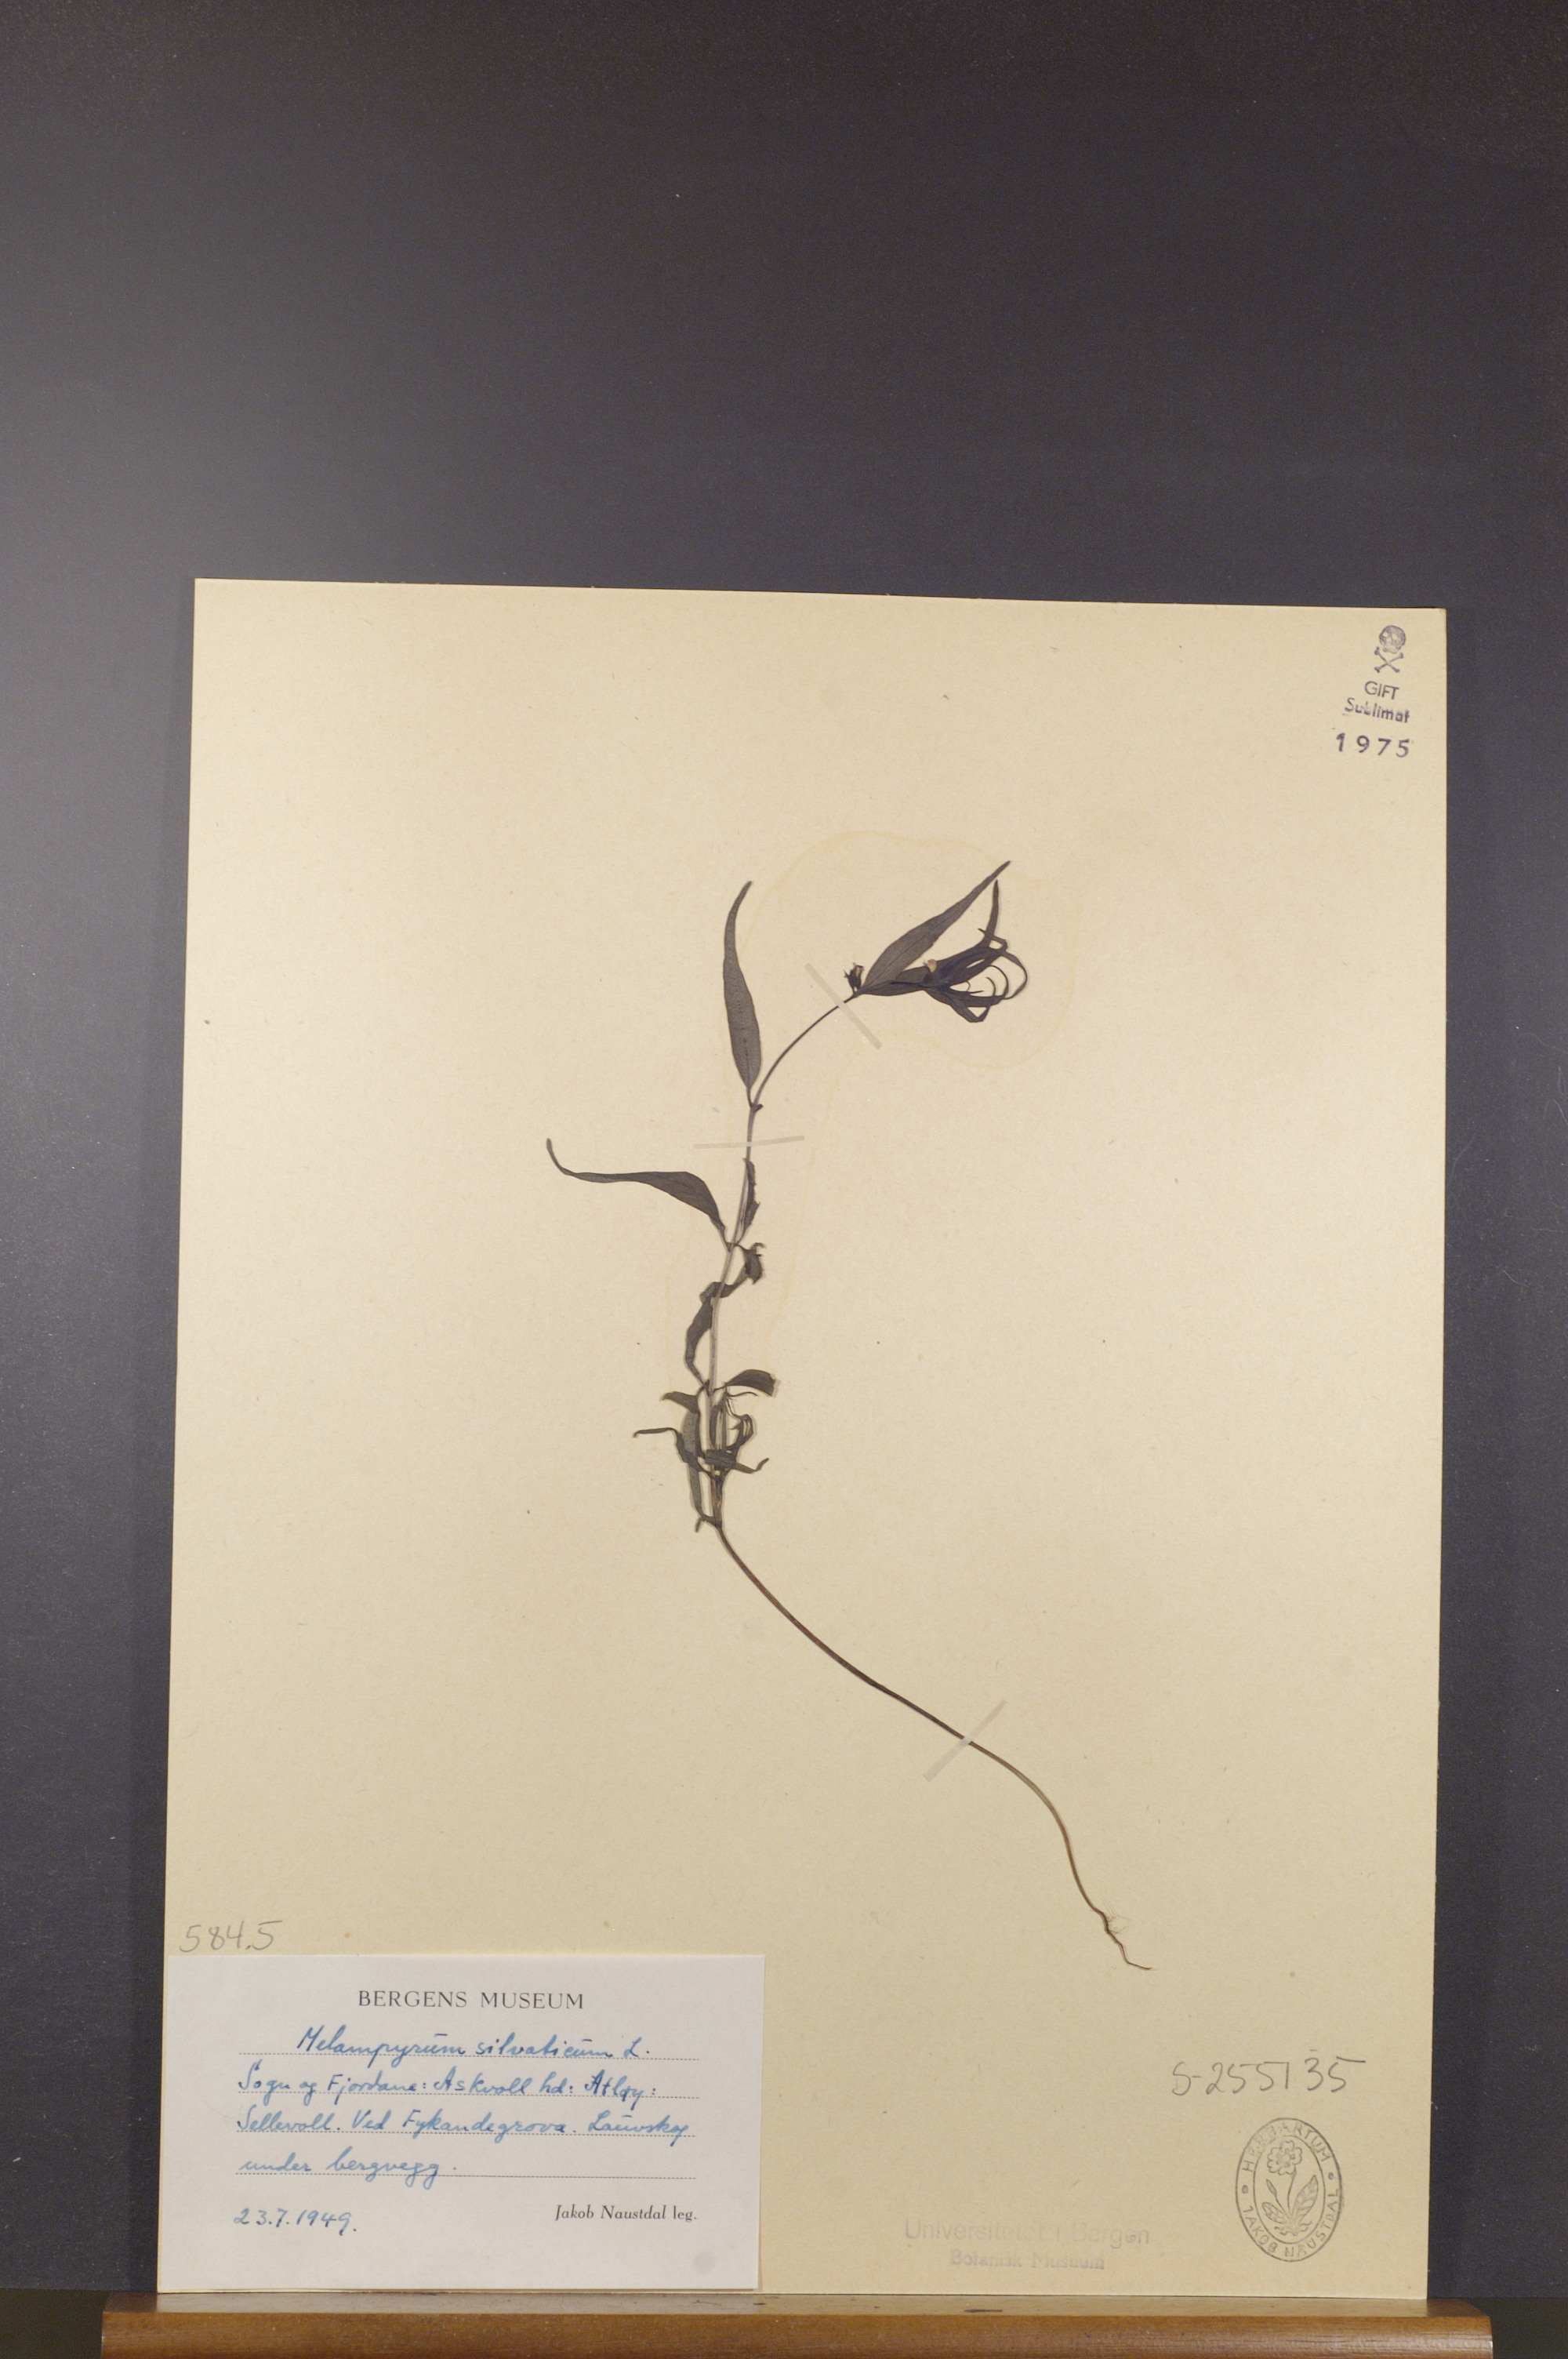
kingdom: Plantae
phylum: Tracheophyta
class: Magnoliopsida
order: Lamiales
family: Orobanchaceae
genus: Melampyrum
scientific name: Melampyrum sylvaticum
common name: Small cow-wheat
